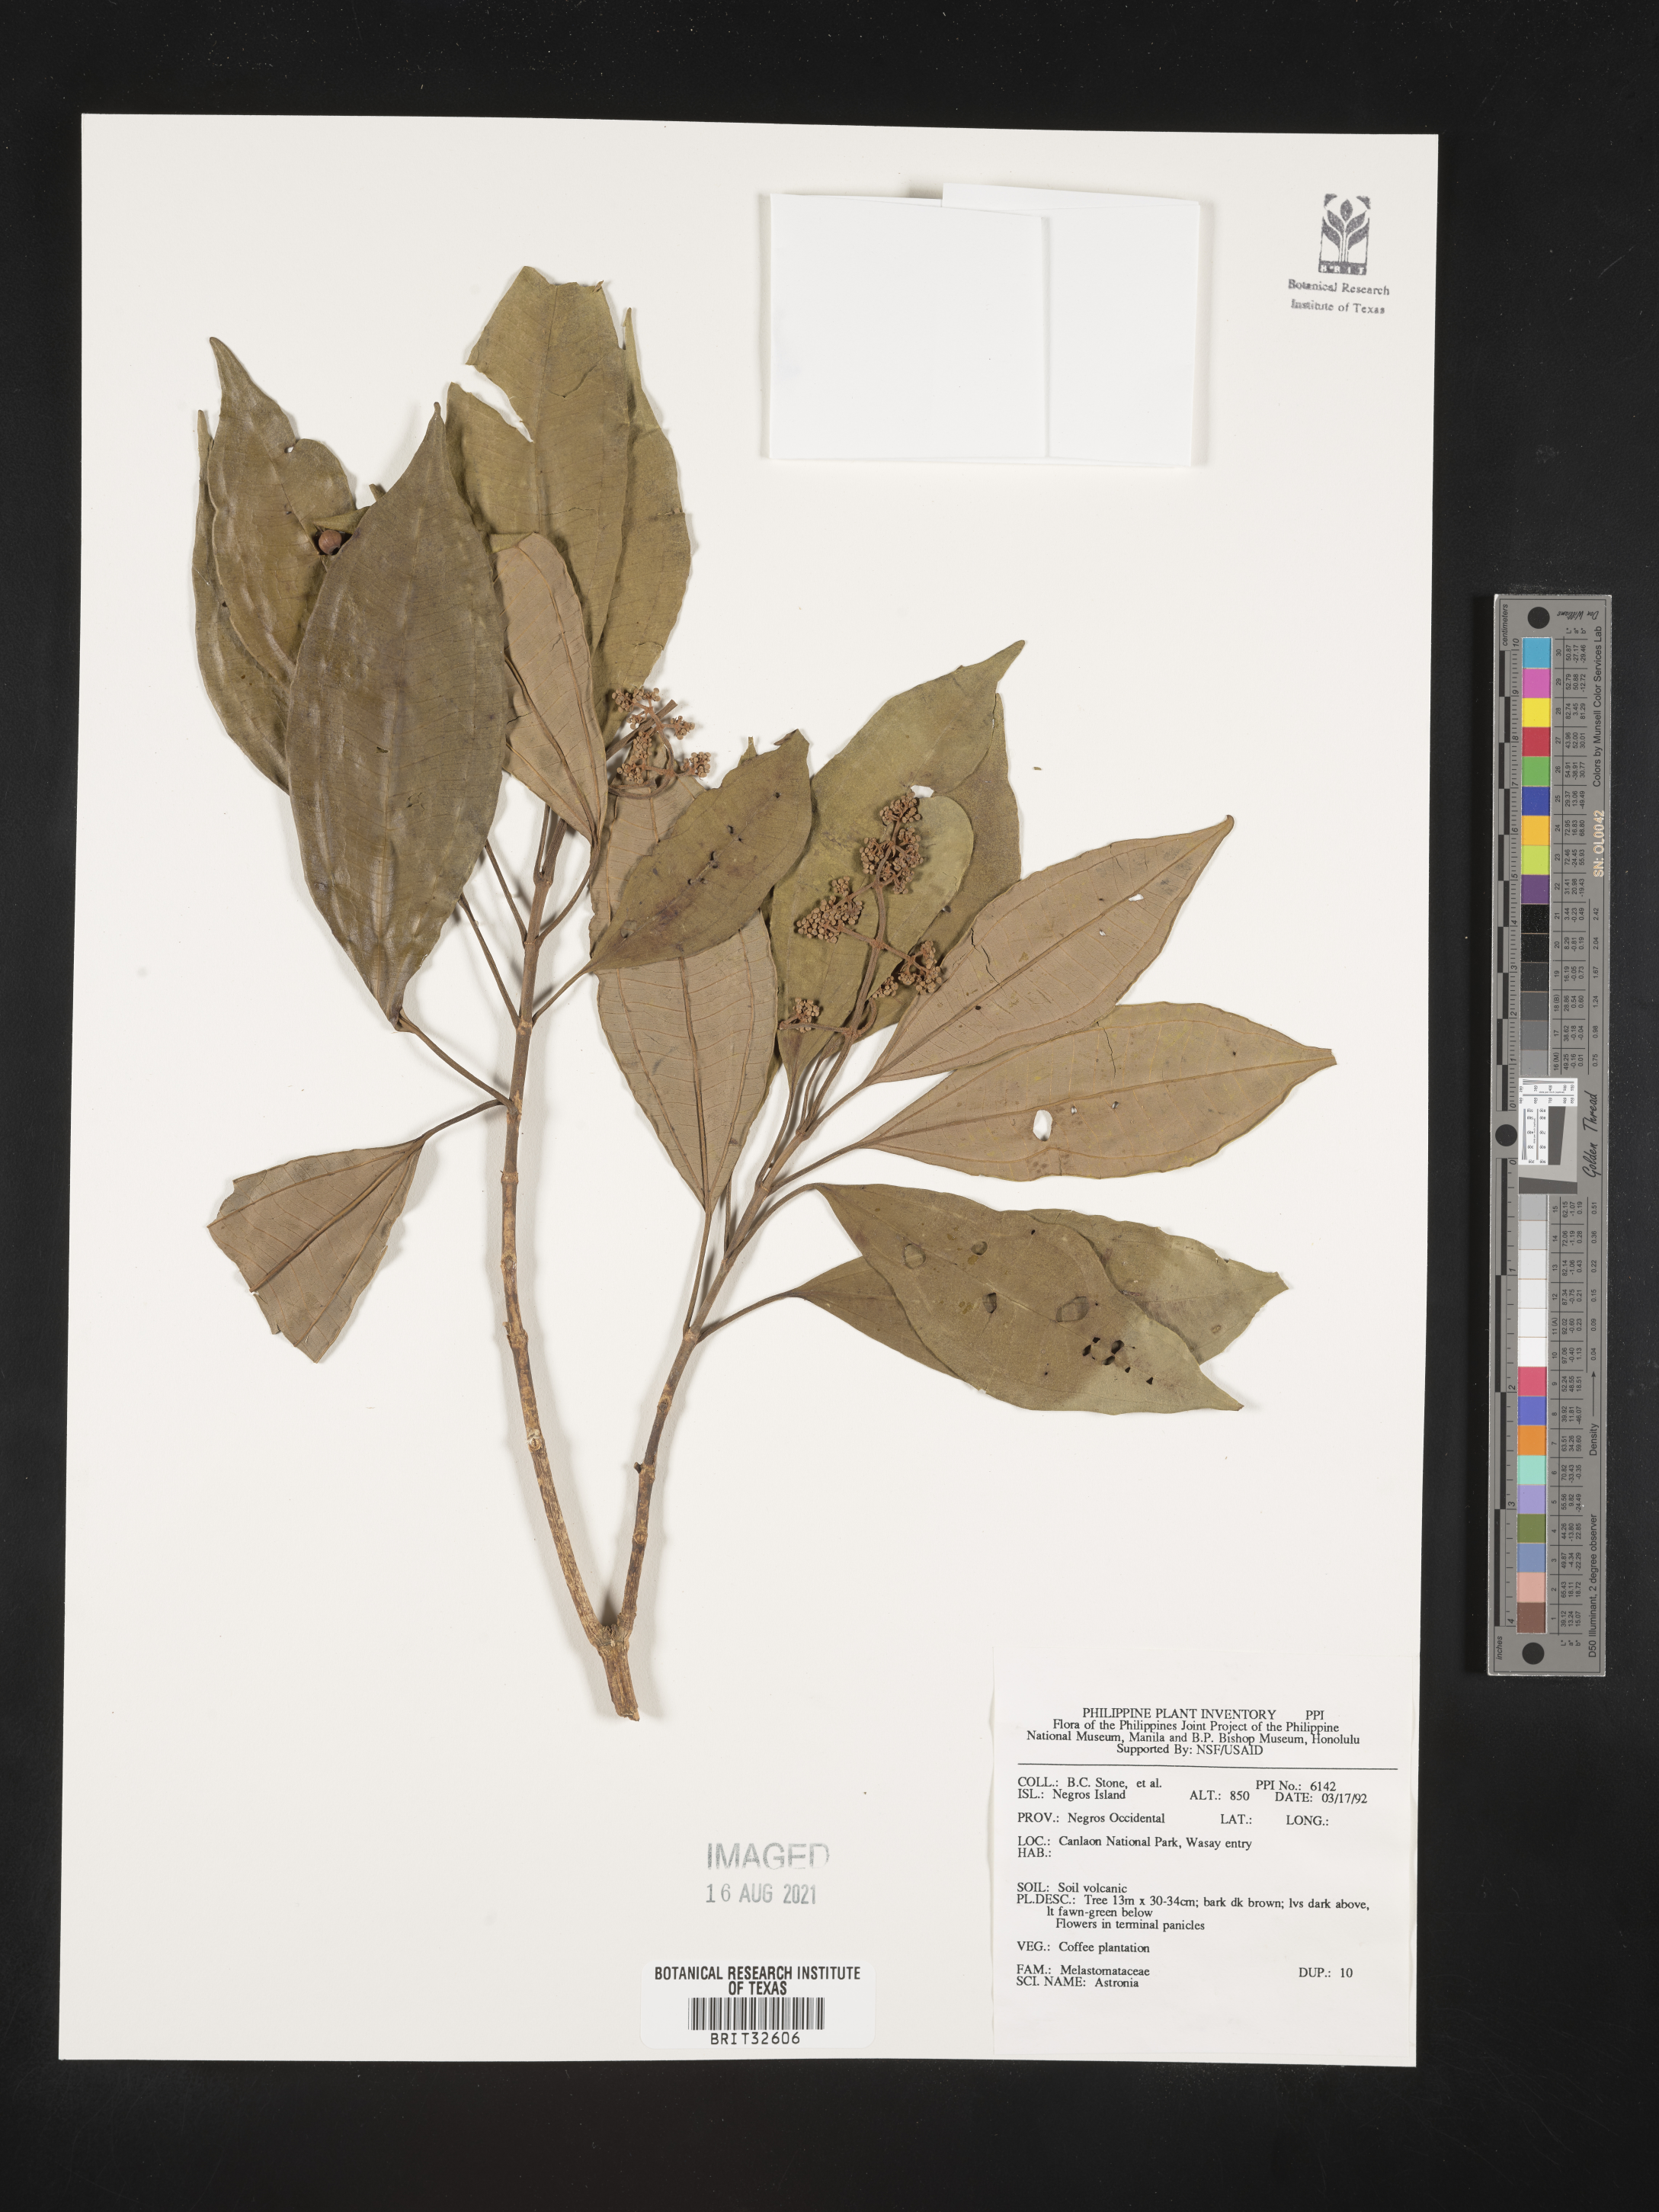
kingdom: Plantae
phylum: Tracheophyta
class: Magnoliopsida
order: Myrtales
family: Melastomataceae
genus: Astronia
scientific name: Astronia
